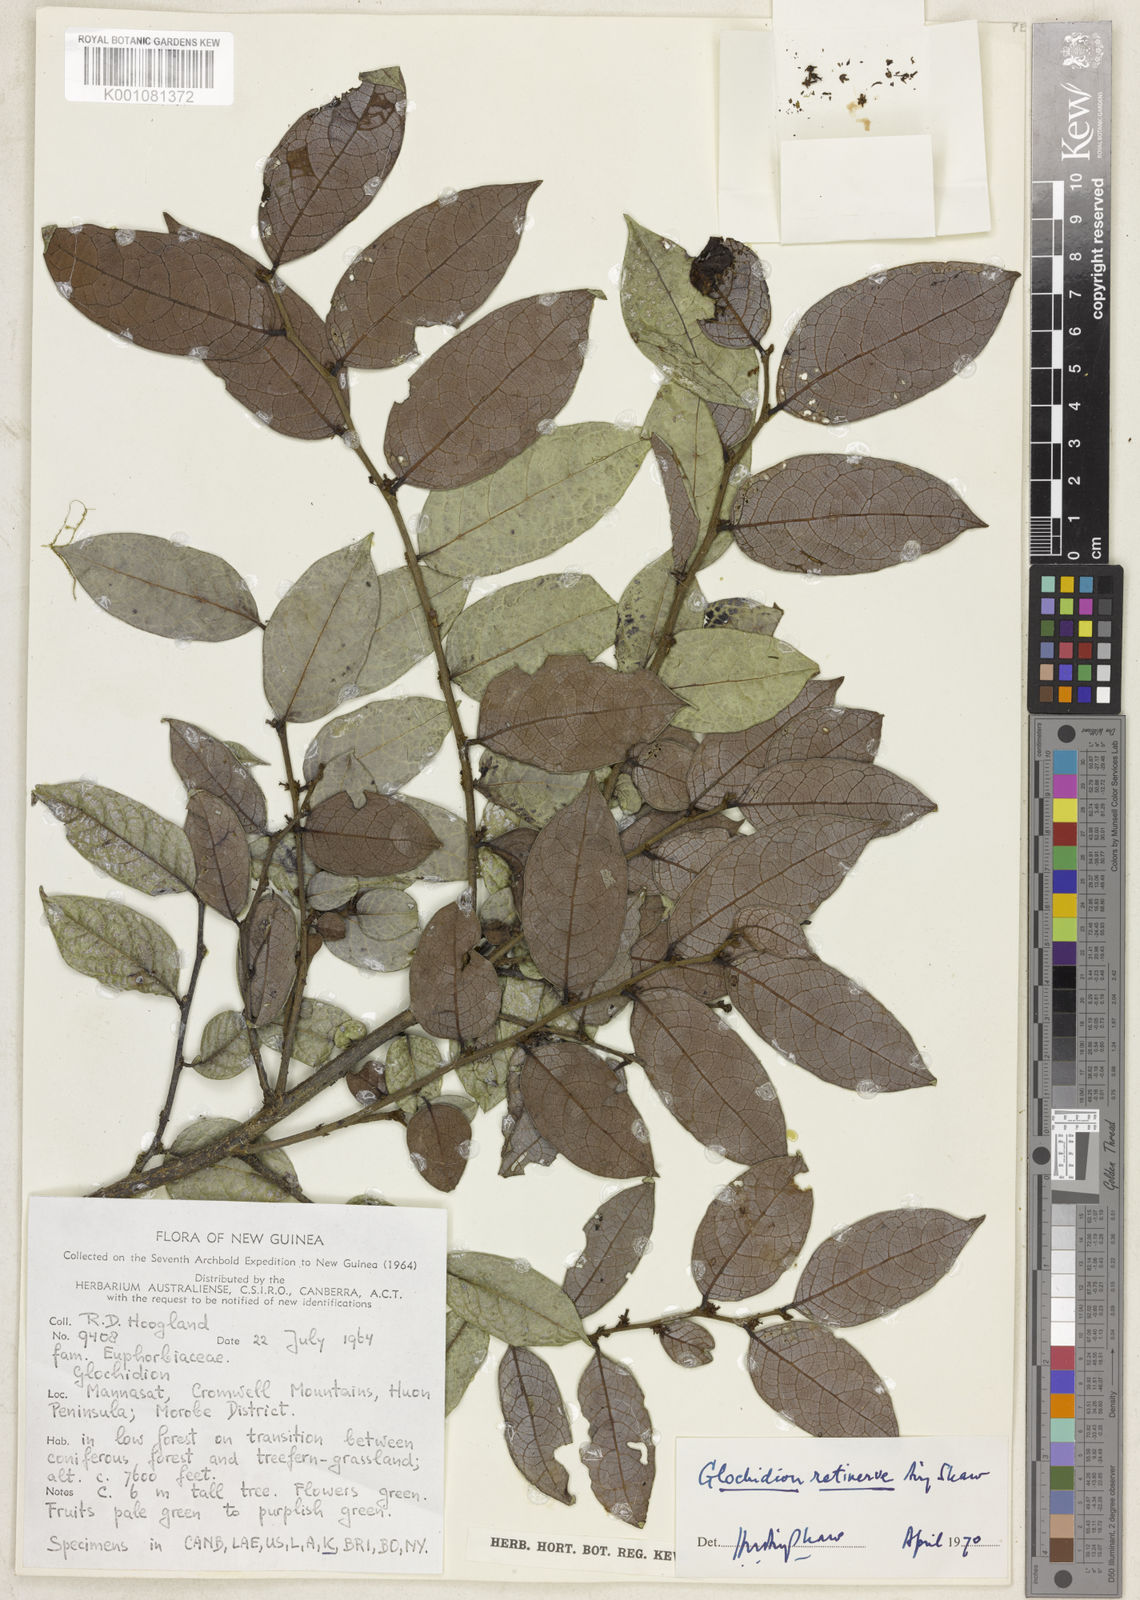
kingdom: Plantae
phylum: Tracheophyta
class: Magnoliopsida
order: Malpighiales
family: Phyllanthaceae
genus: Glochidion
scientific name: Glochidion retinerve
